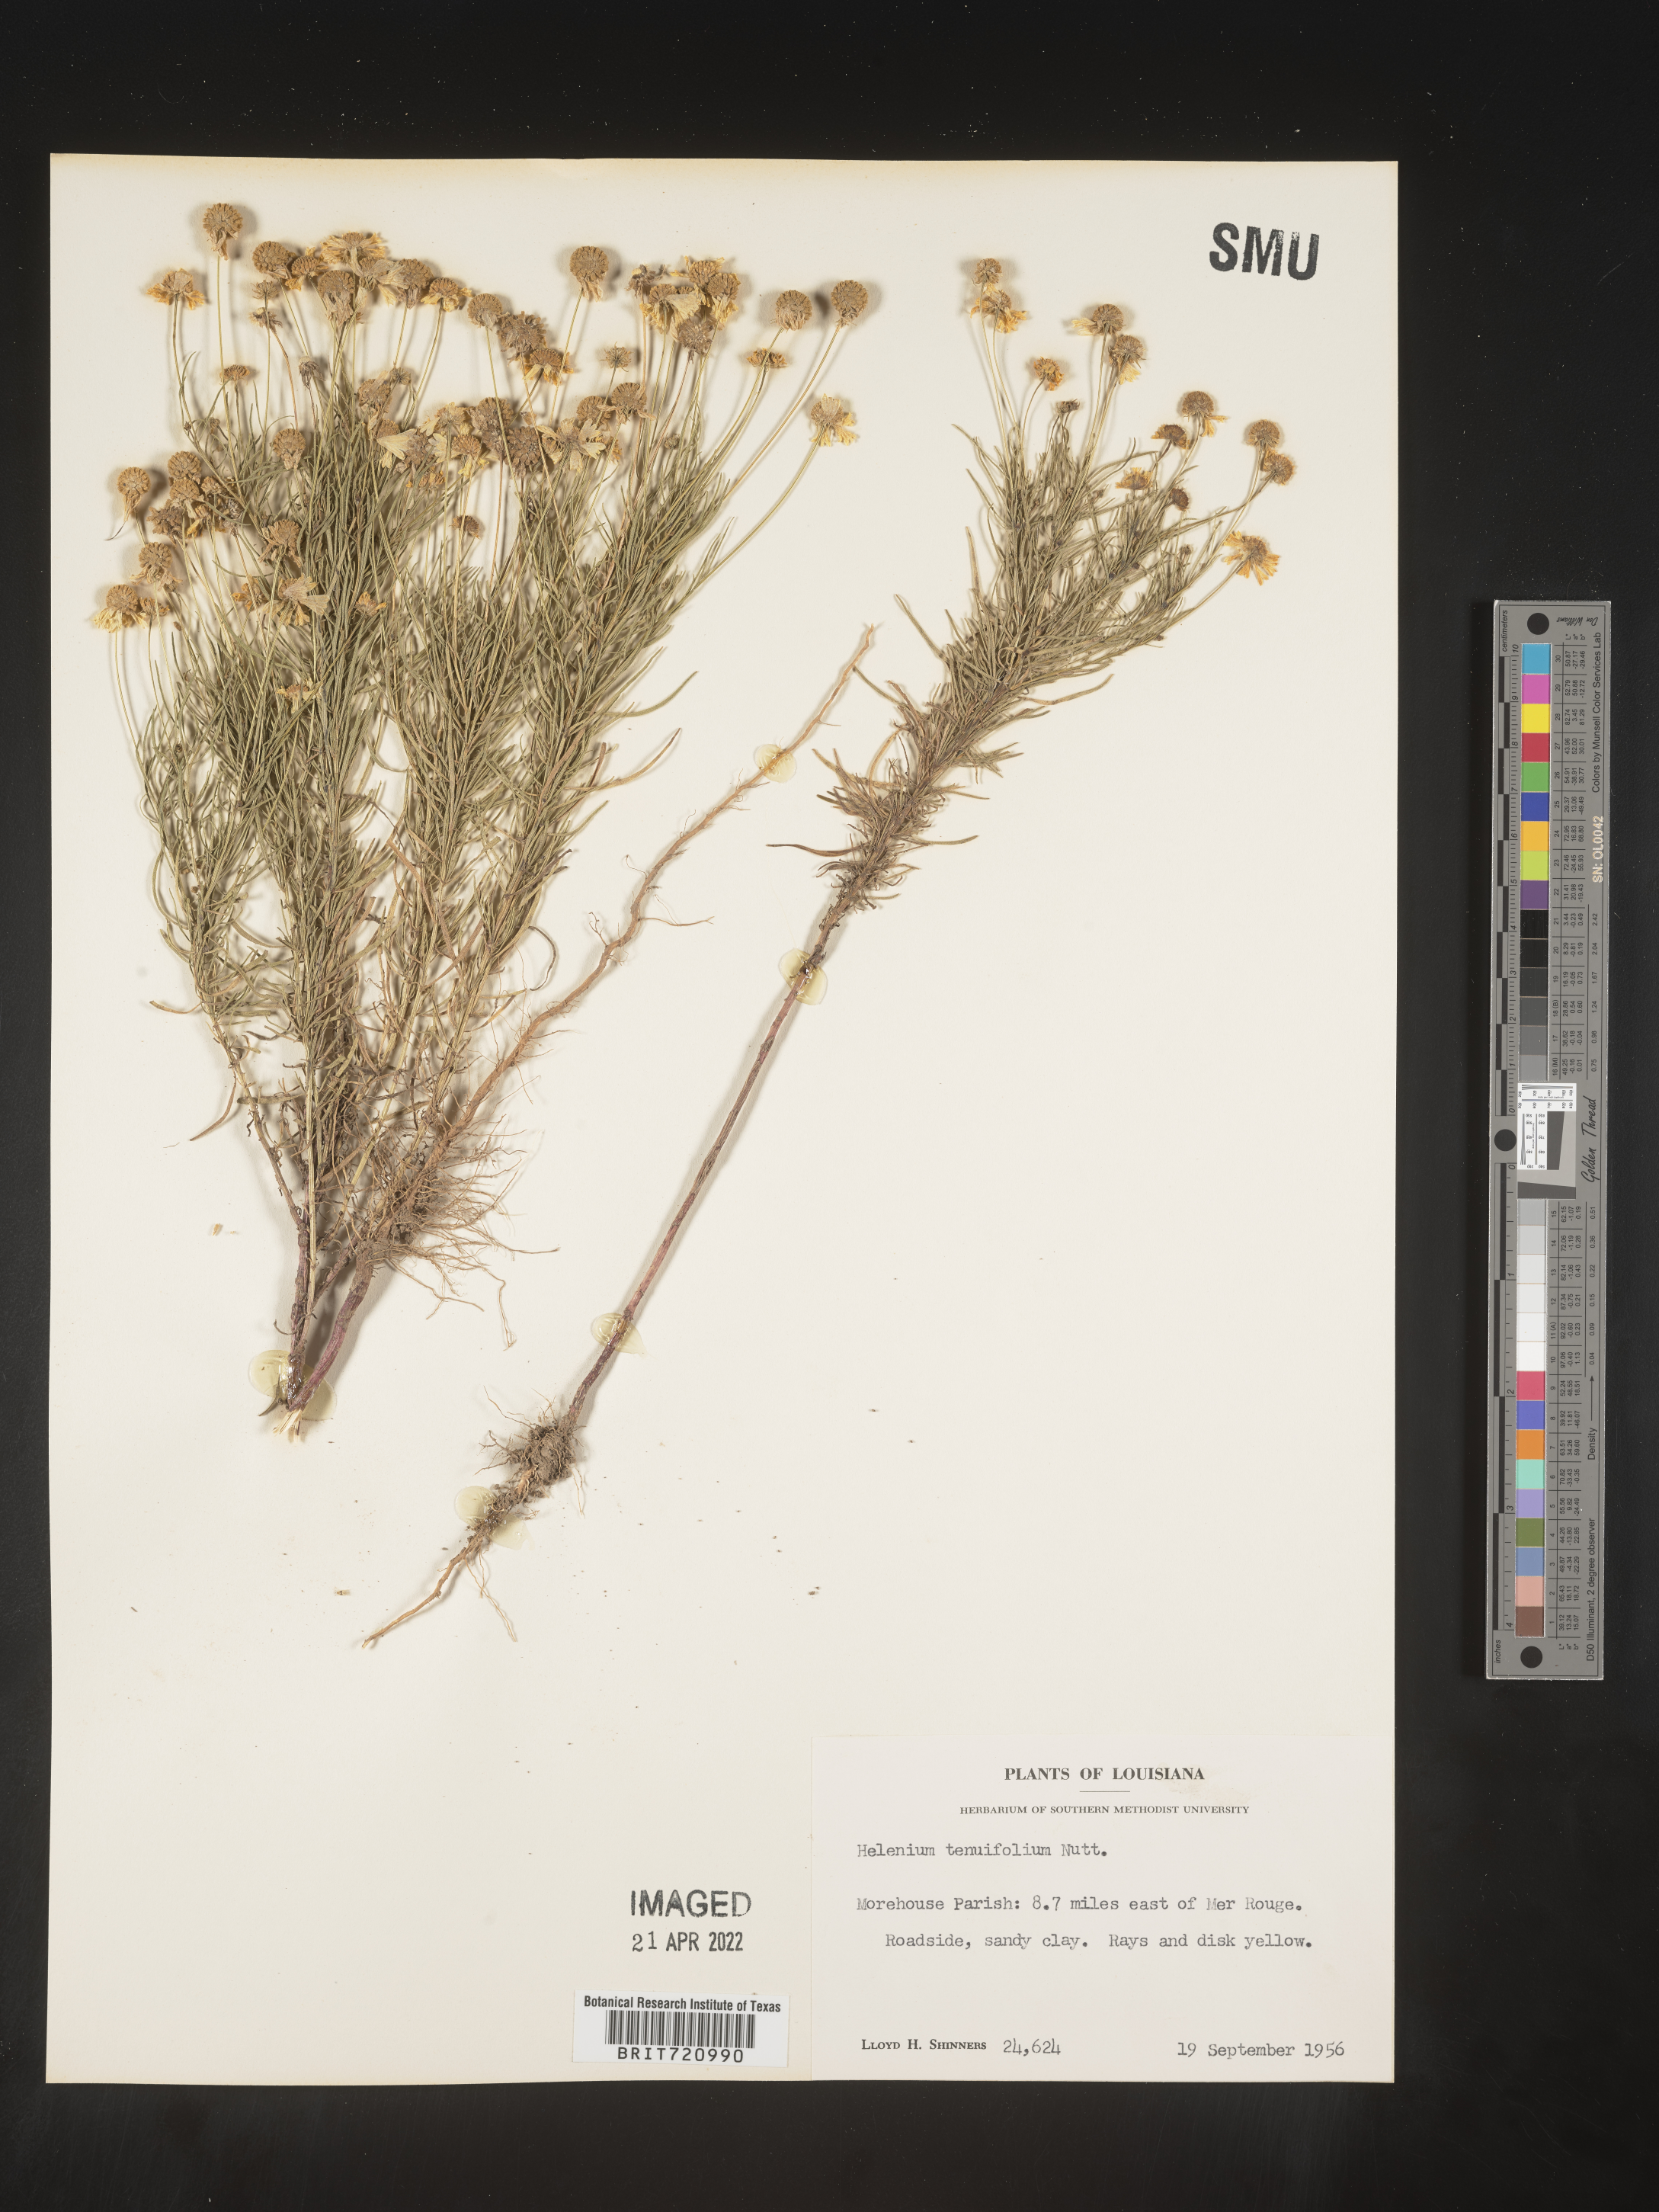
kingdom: Plantae
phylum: Tracheophyta
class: Magnoliopsida
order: Asterales
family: Asteraceae
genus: Helenium
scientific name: Helenium amarum
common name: Bitter sneezeweed
